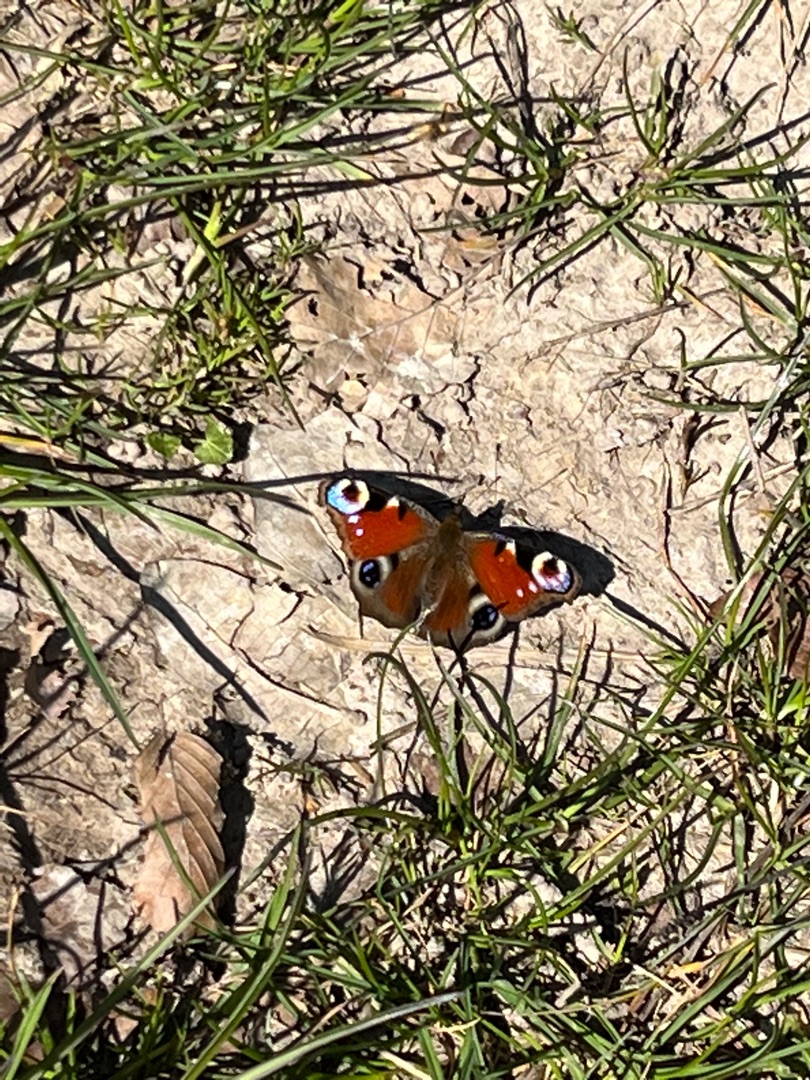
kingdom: Animalia
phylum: Arthropoda
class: Insecta
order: Lepidoptera
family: Nymphalidae
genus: Aglais
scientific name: Aglais io
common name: Dagpåfugleøje
